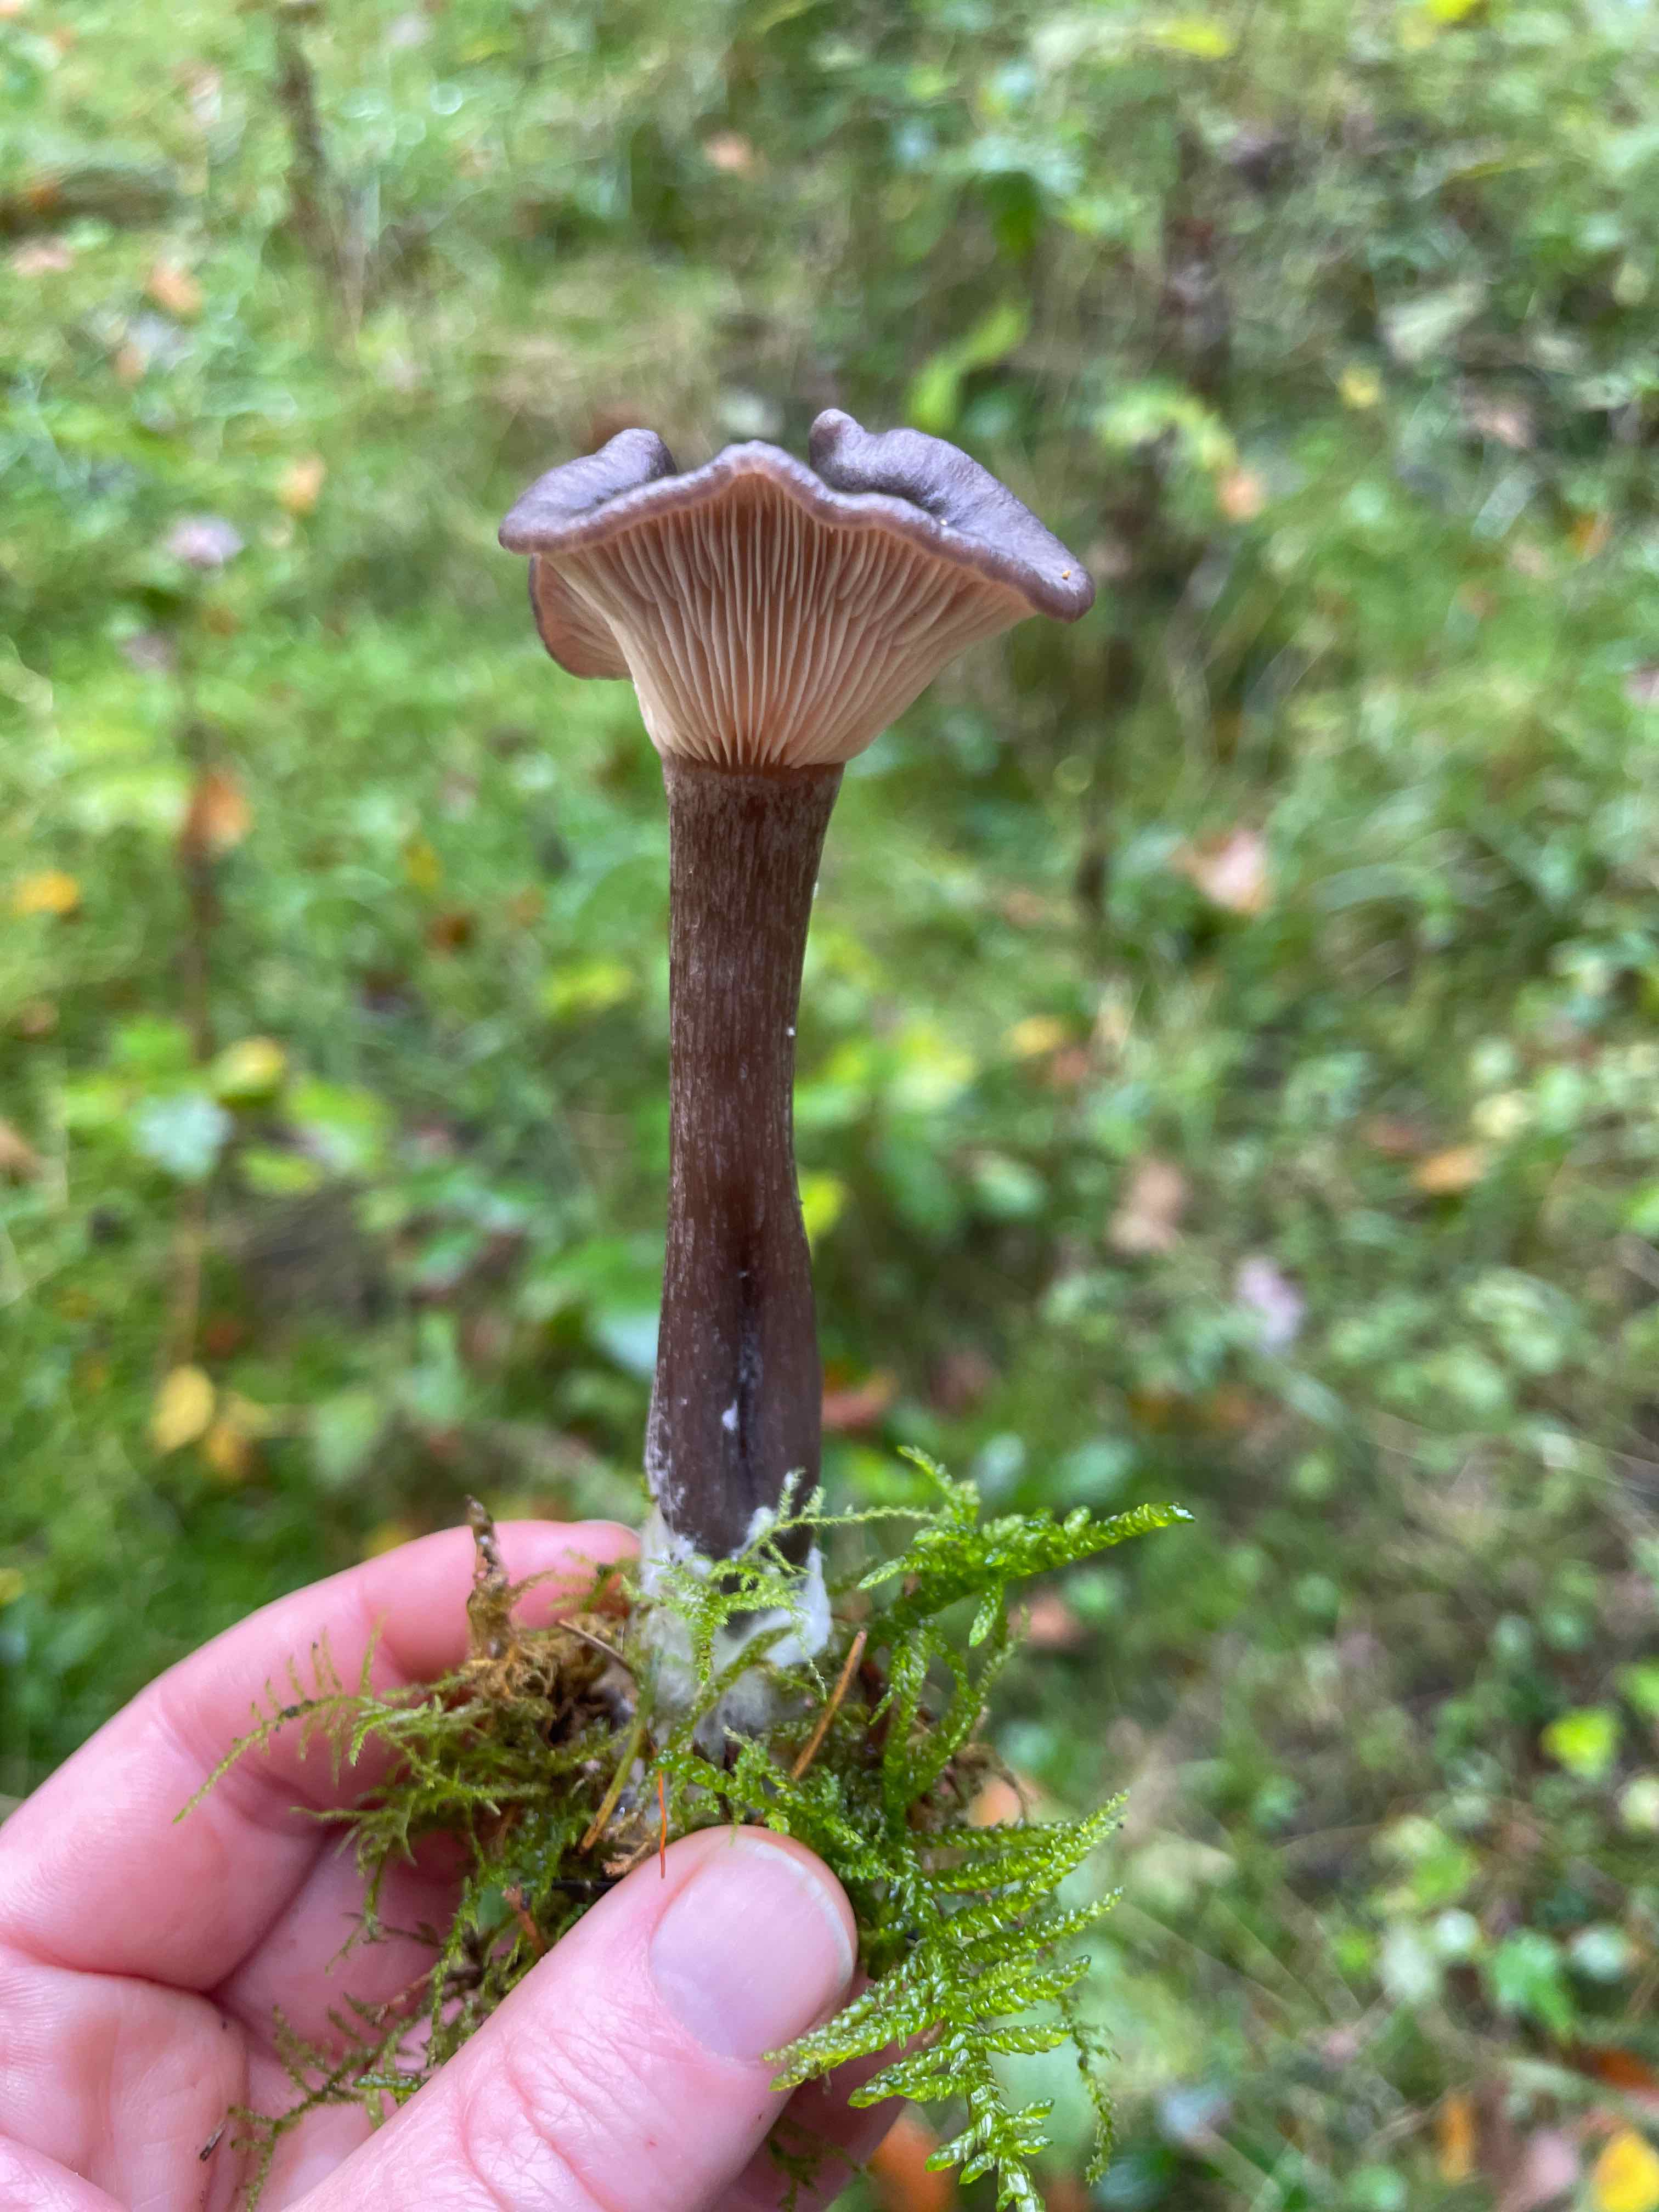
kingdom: Fungi
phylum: Basidiomycota
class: Agaricomycetes
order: Agaricales
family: Pseudoclitocybaceae
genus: Pseudoclitocybe
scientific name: Pseudoclitocybe cyathiformis
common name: almindelig bægertragthat
